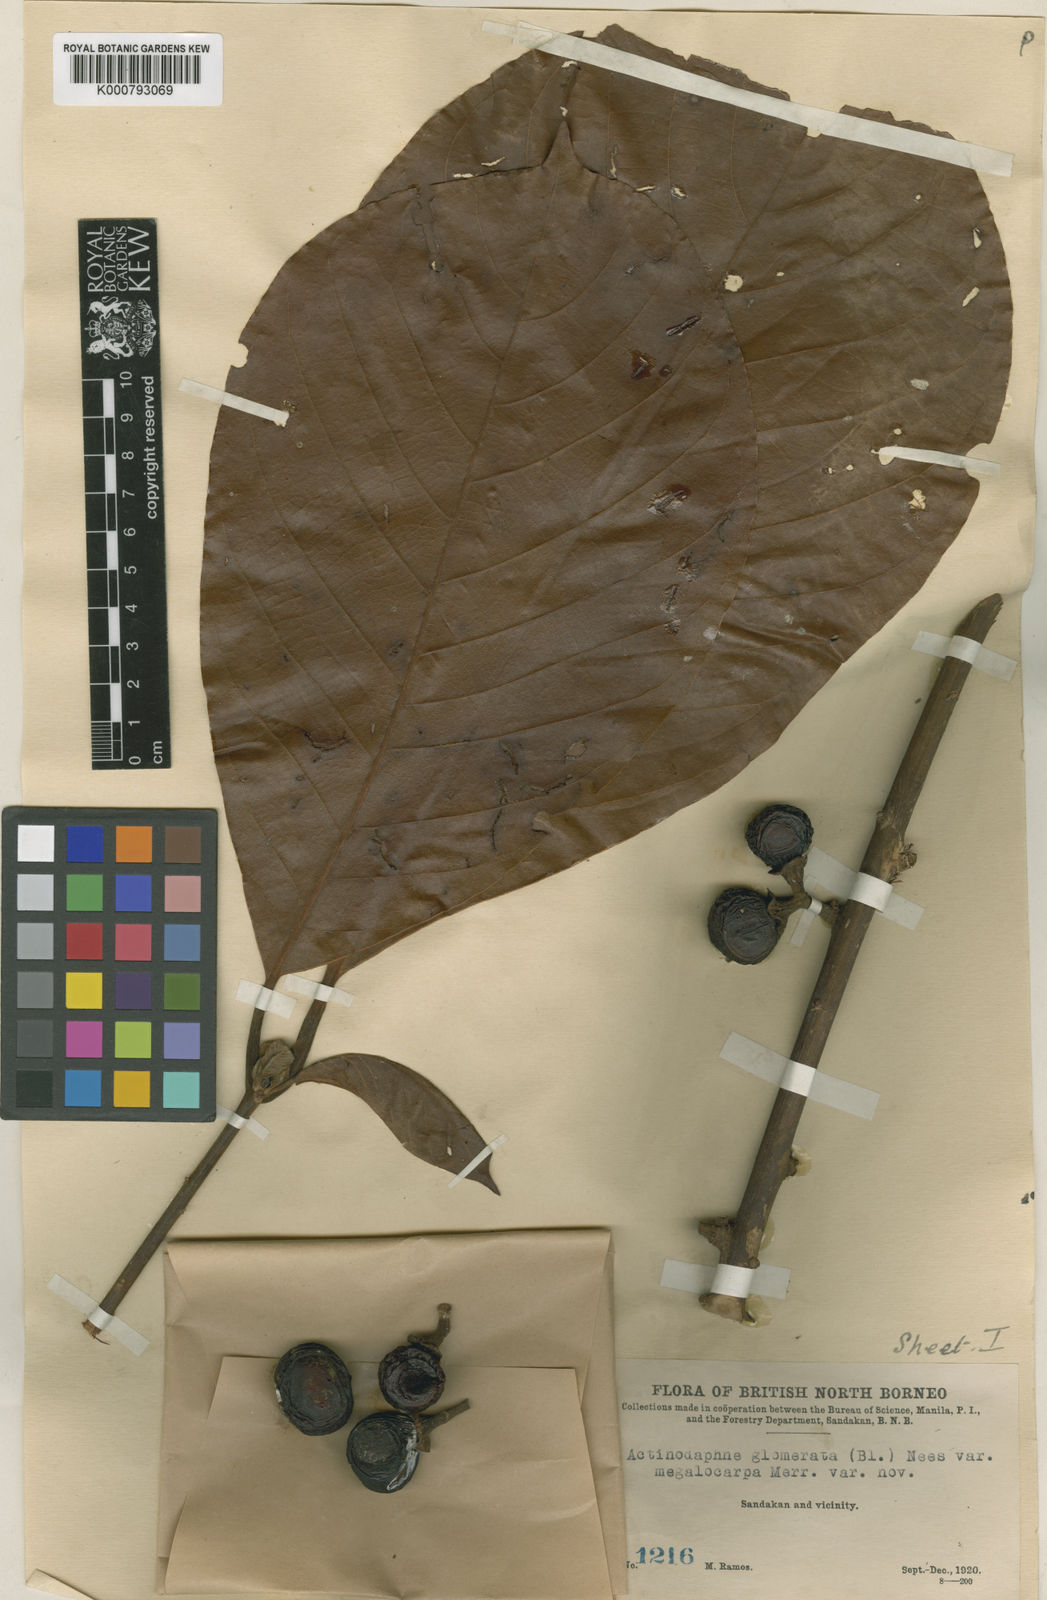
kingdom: Plantae
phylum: Tracheophyta
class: Magnoliopsida
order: Laurales
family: Lauraceae
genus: Actinodaphne
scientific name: Actinodaphne glomerata
